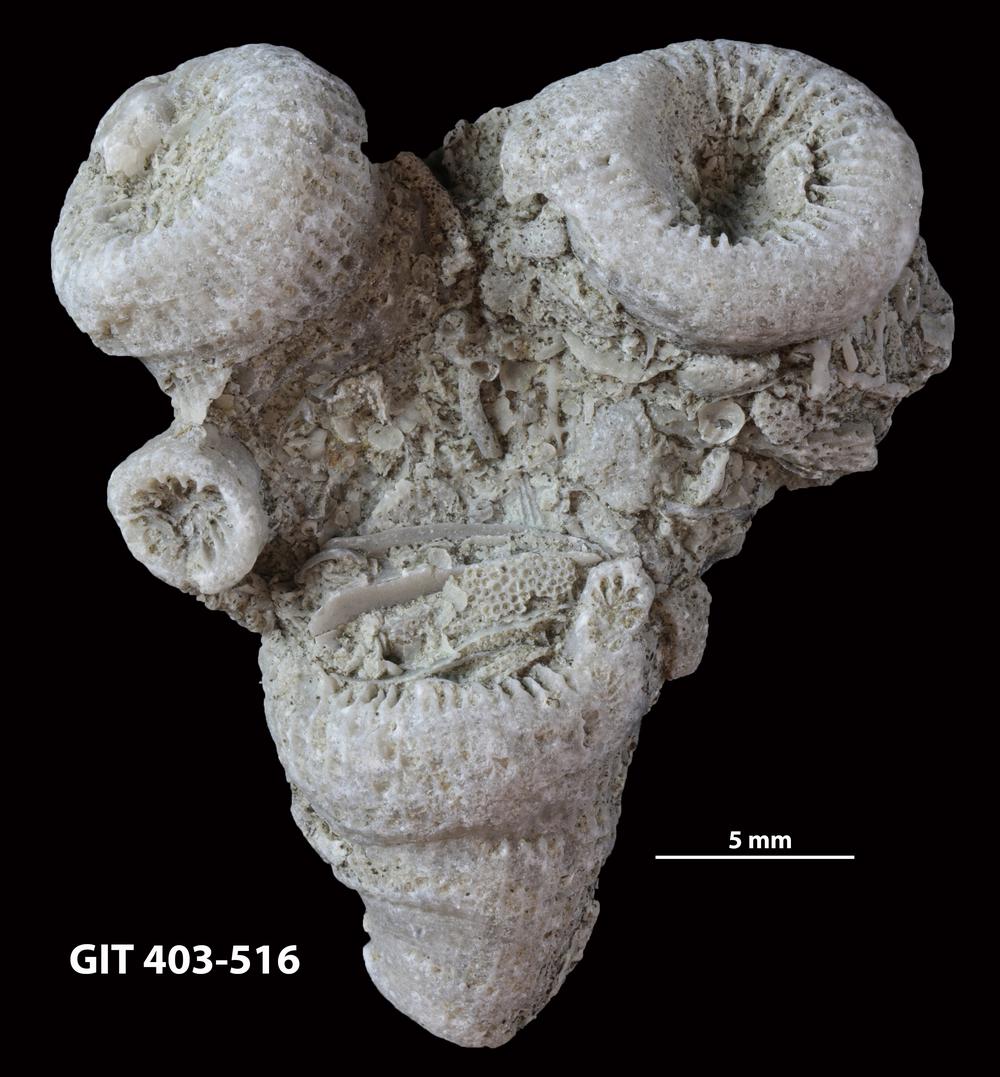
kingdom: Animalia
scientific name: Animalia
